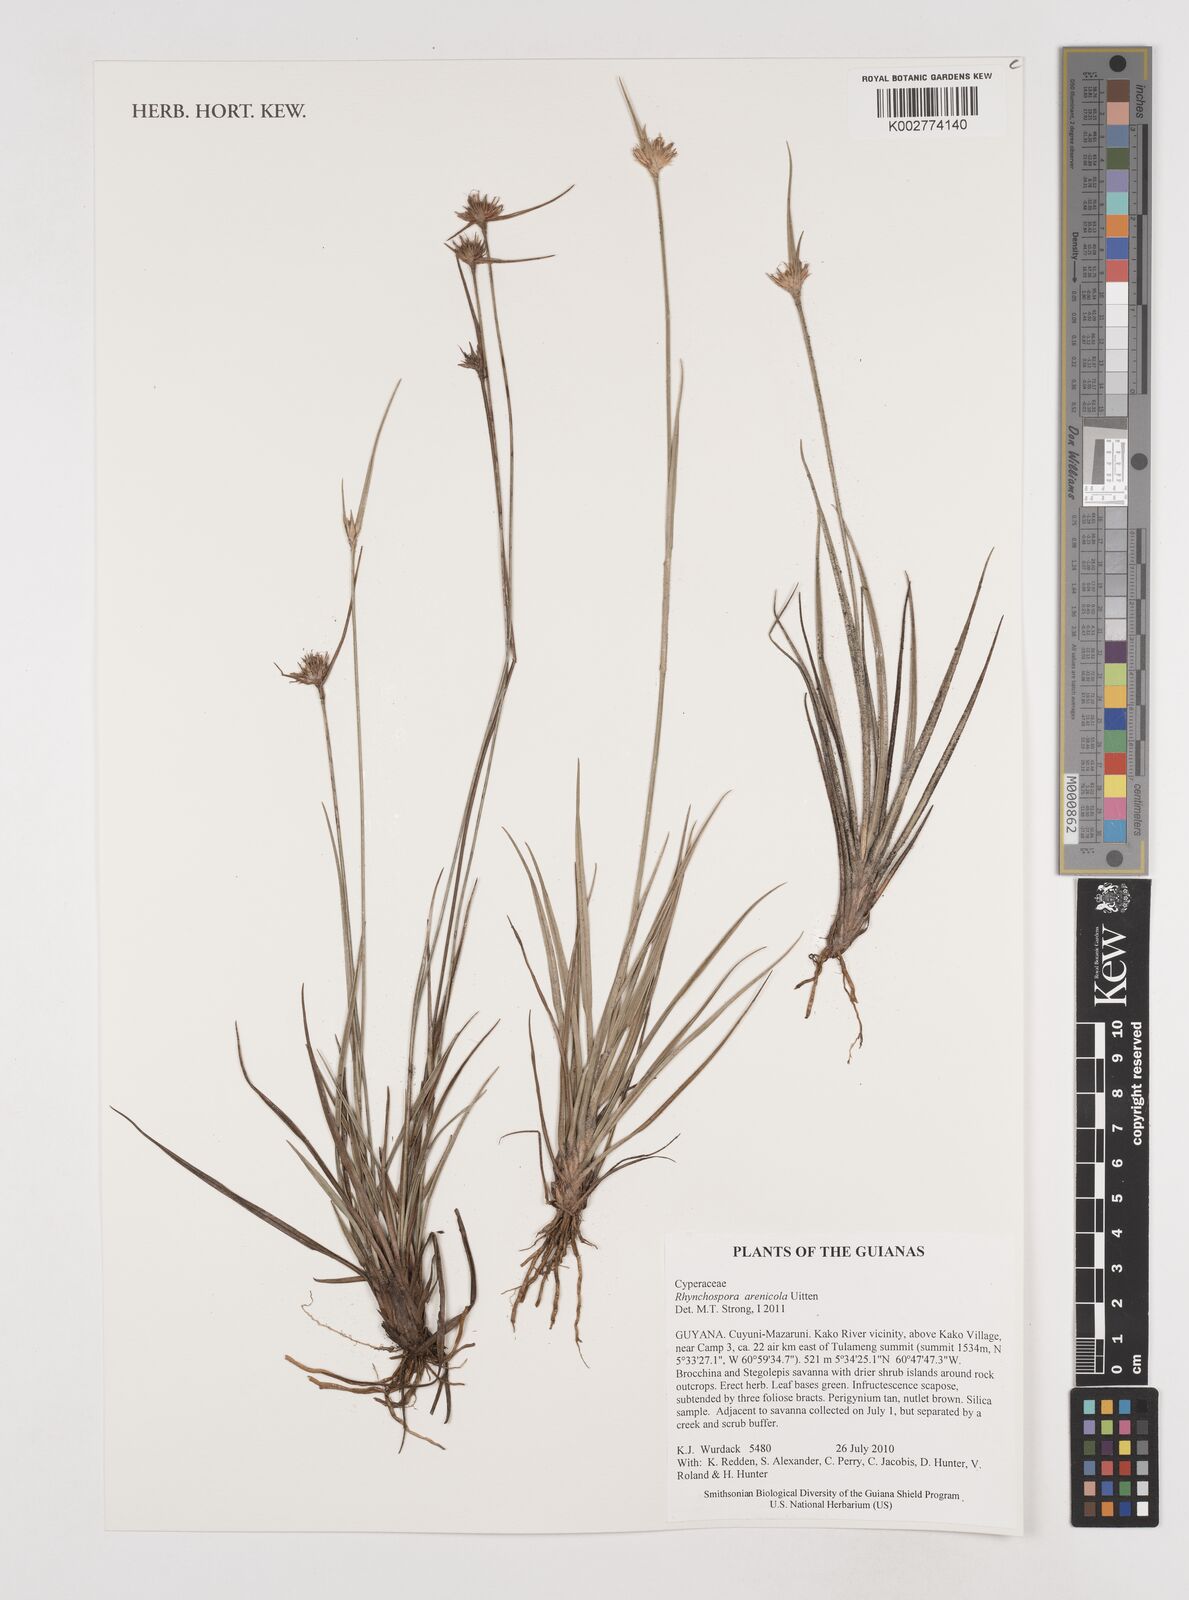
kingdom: Plantae
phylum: Tracheophyta
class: Liliopsida
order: Poales
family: Cyperaceae
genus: Rhynchospora
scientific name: Rhynchospora arenicola
